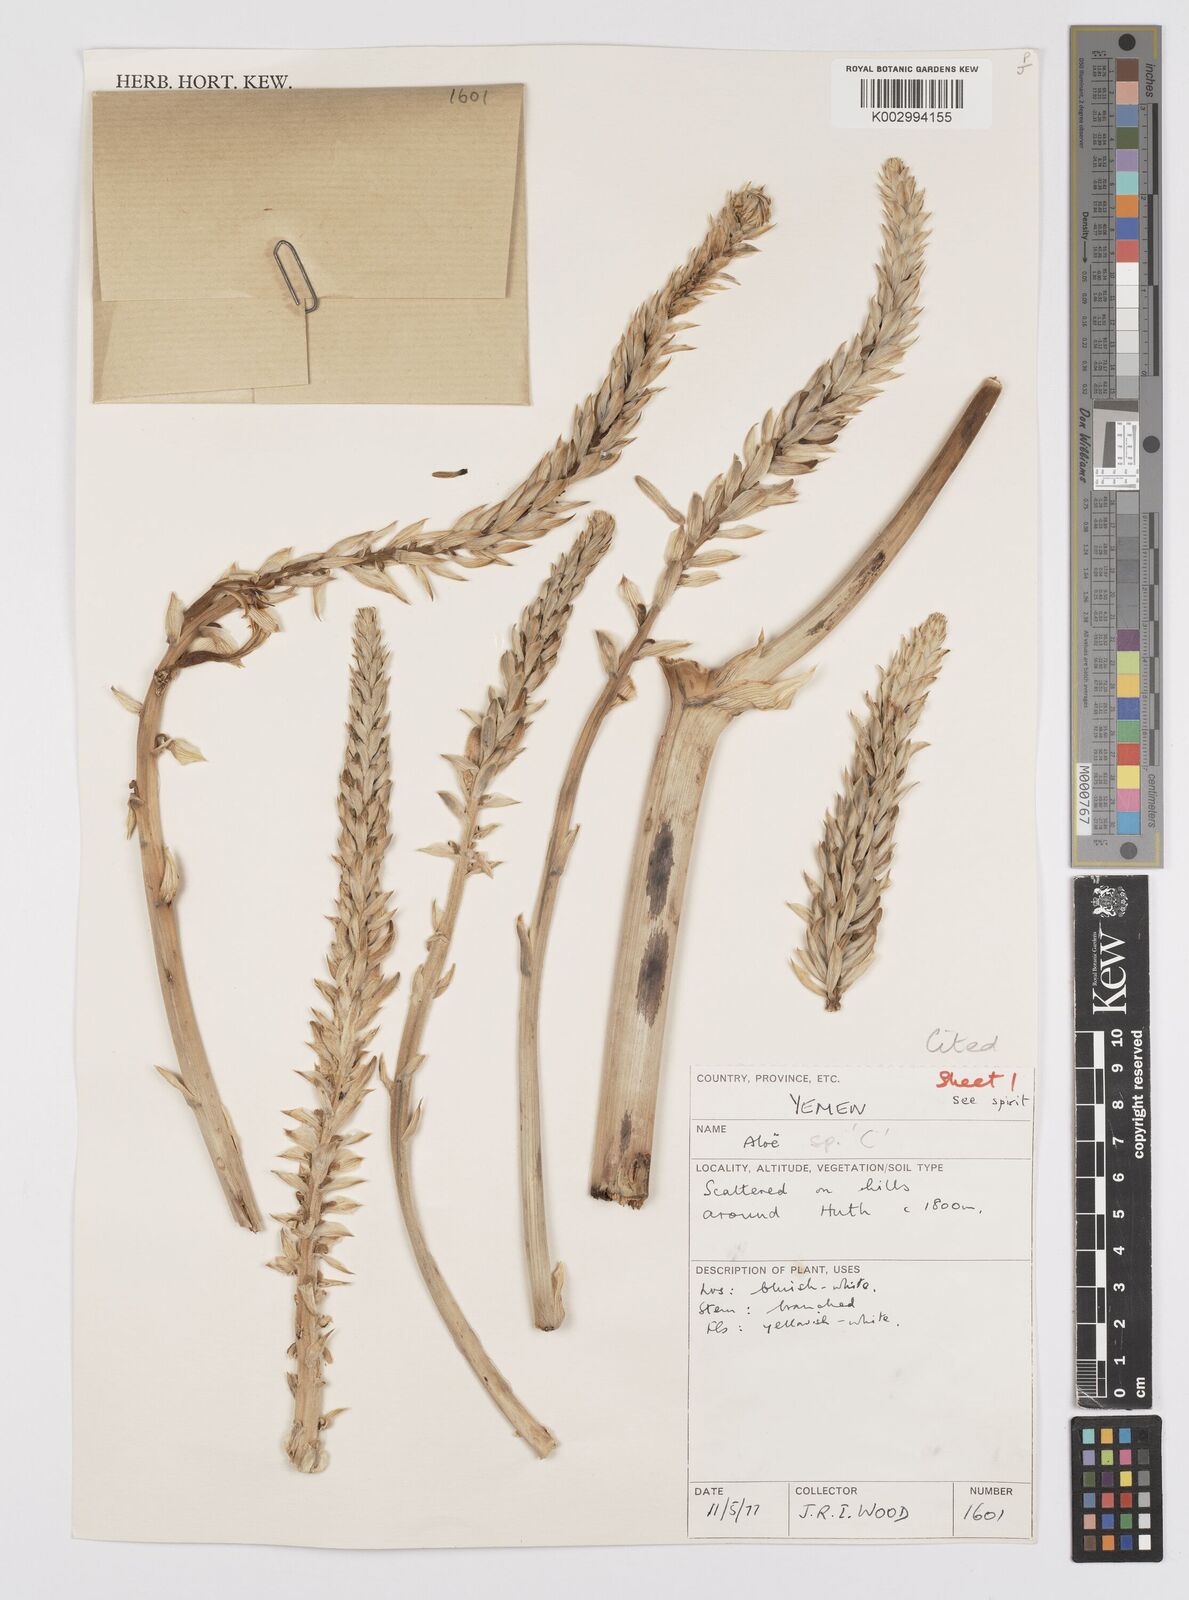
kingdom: Plantae
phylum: Tracheophyta
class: Liliopsida
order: Asparagales
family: Asphodelaceae
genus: Aloe
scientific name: Aloe
